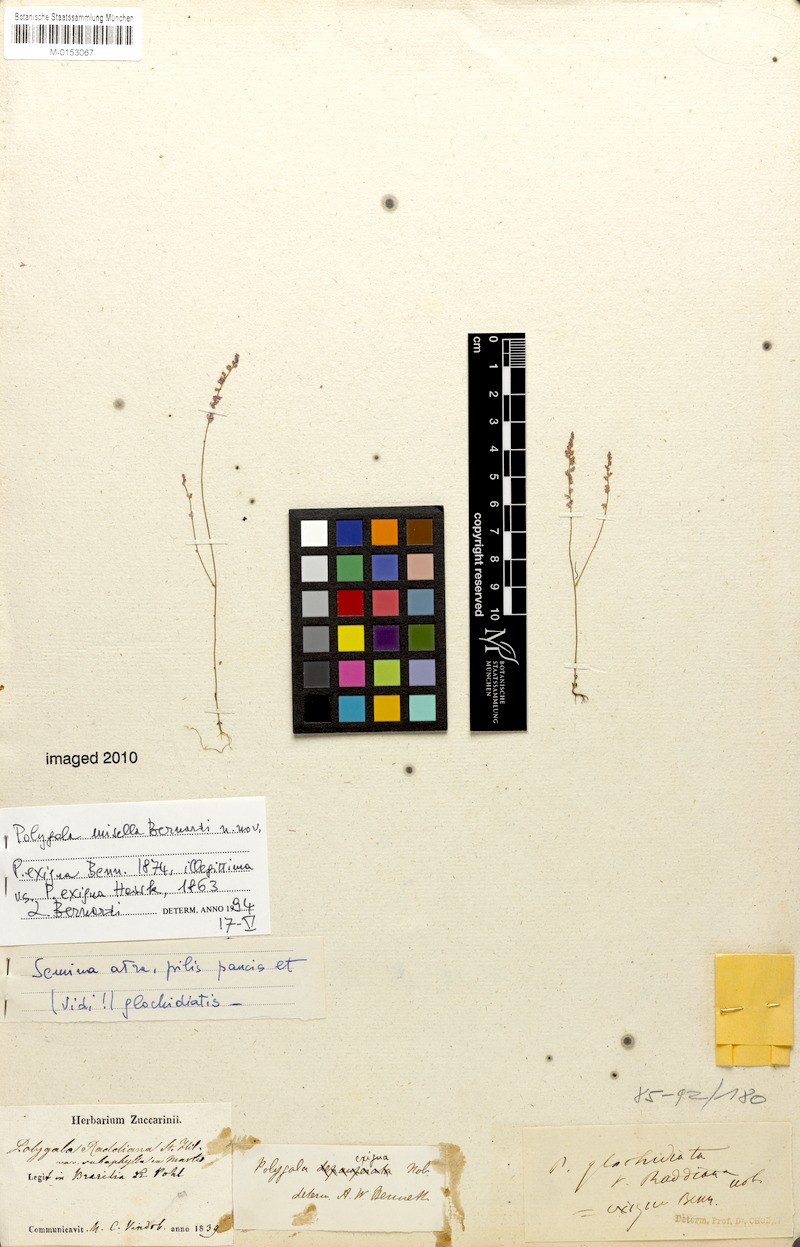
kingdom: Plantae
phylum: Tracheophyta
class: Magnoliopsida
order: Fabales
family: Polygalaceae
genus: Polygala
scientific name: Polygala fendleri
